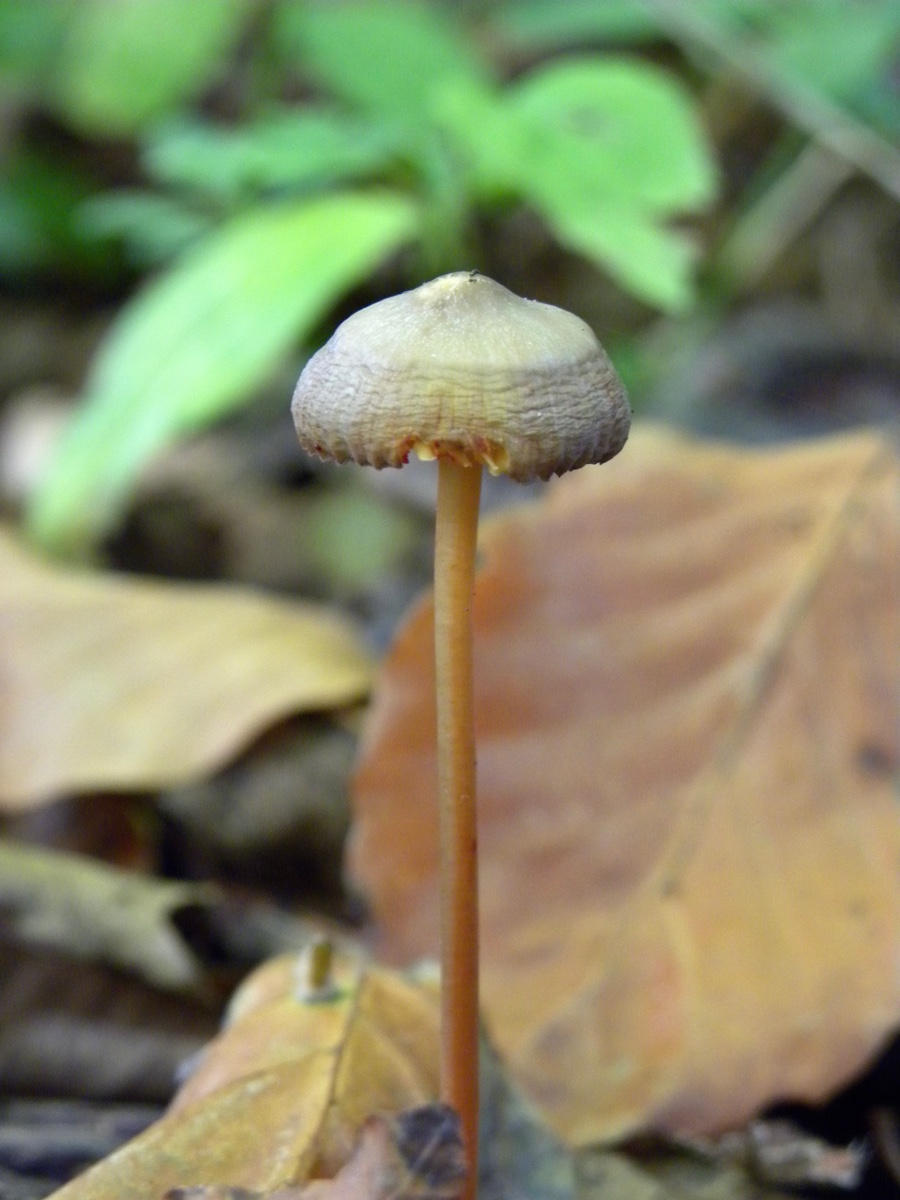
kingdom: Fungi
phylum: Basidiomycota
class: Agaricomycetes
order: Agaricales
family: Mycenaceae
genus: Mycena
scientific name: Mycena
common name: huesvamp
